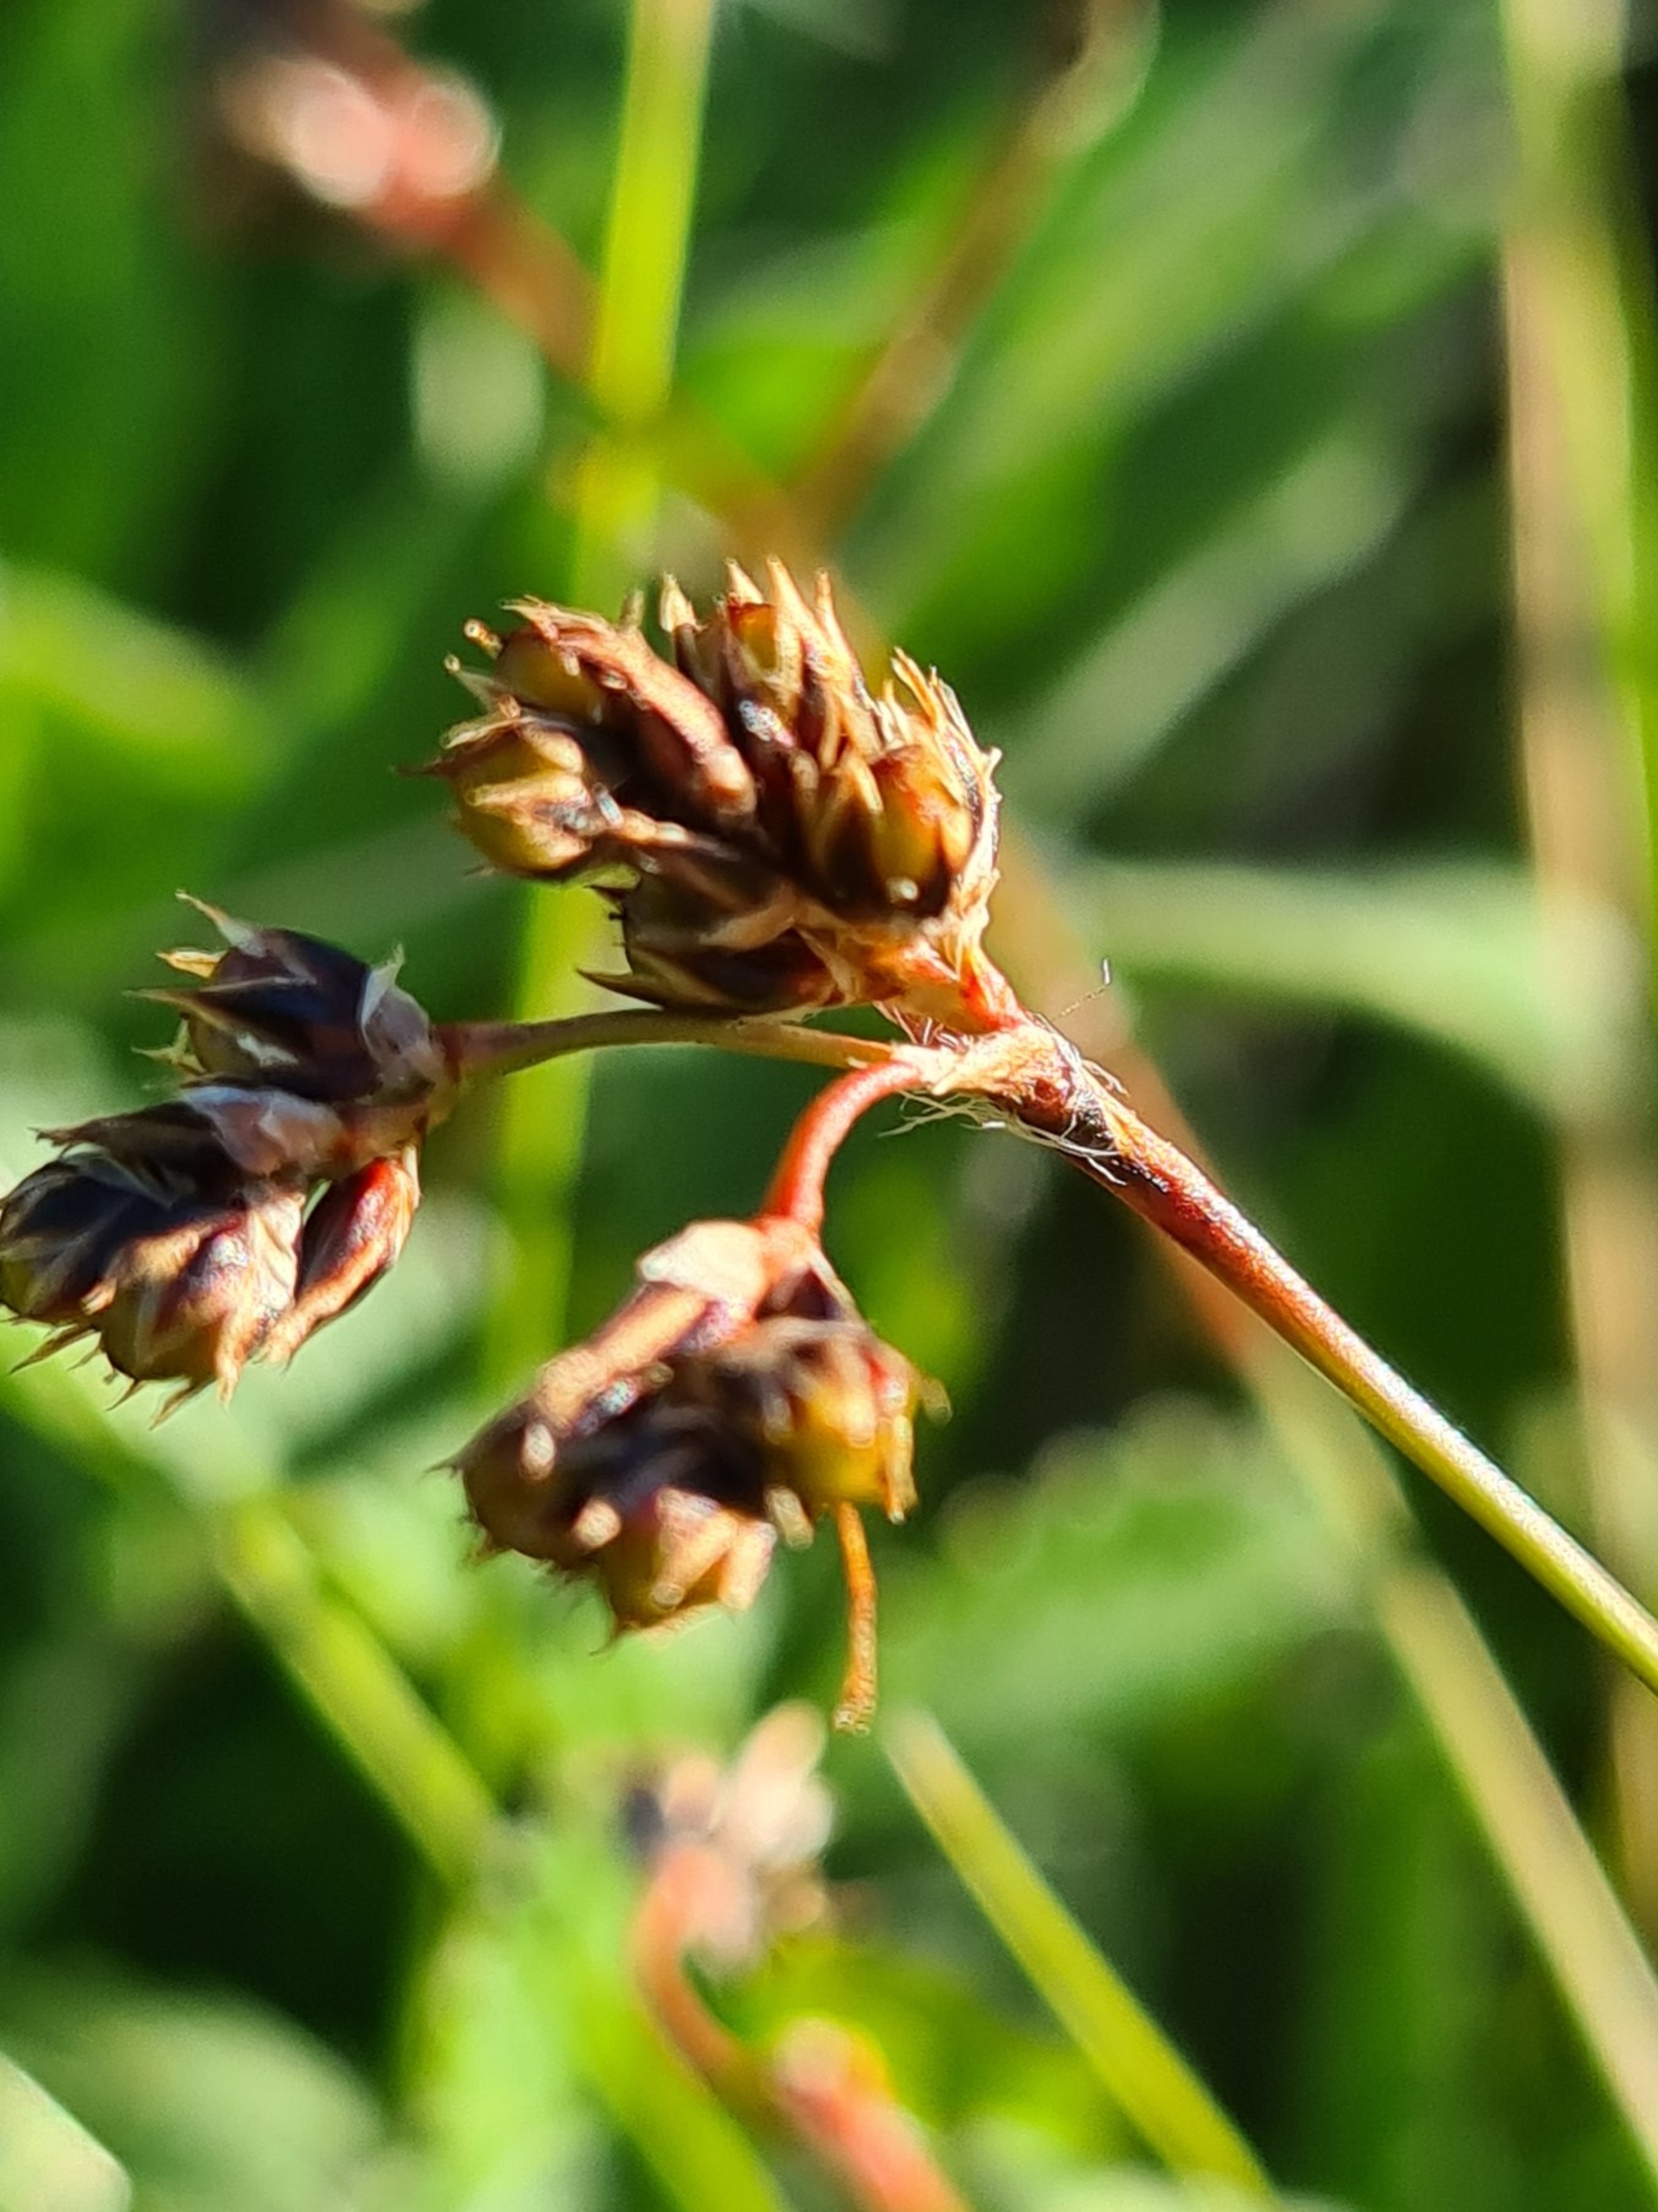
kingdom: Plantae
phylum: Tracheophyta
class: Liliopsida
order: Poales
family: Juncaceae
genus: Luzula
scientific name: Luzula campestris
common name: Mark-frytle
